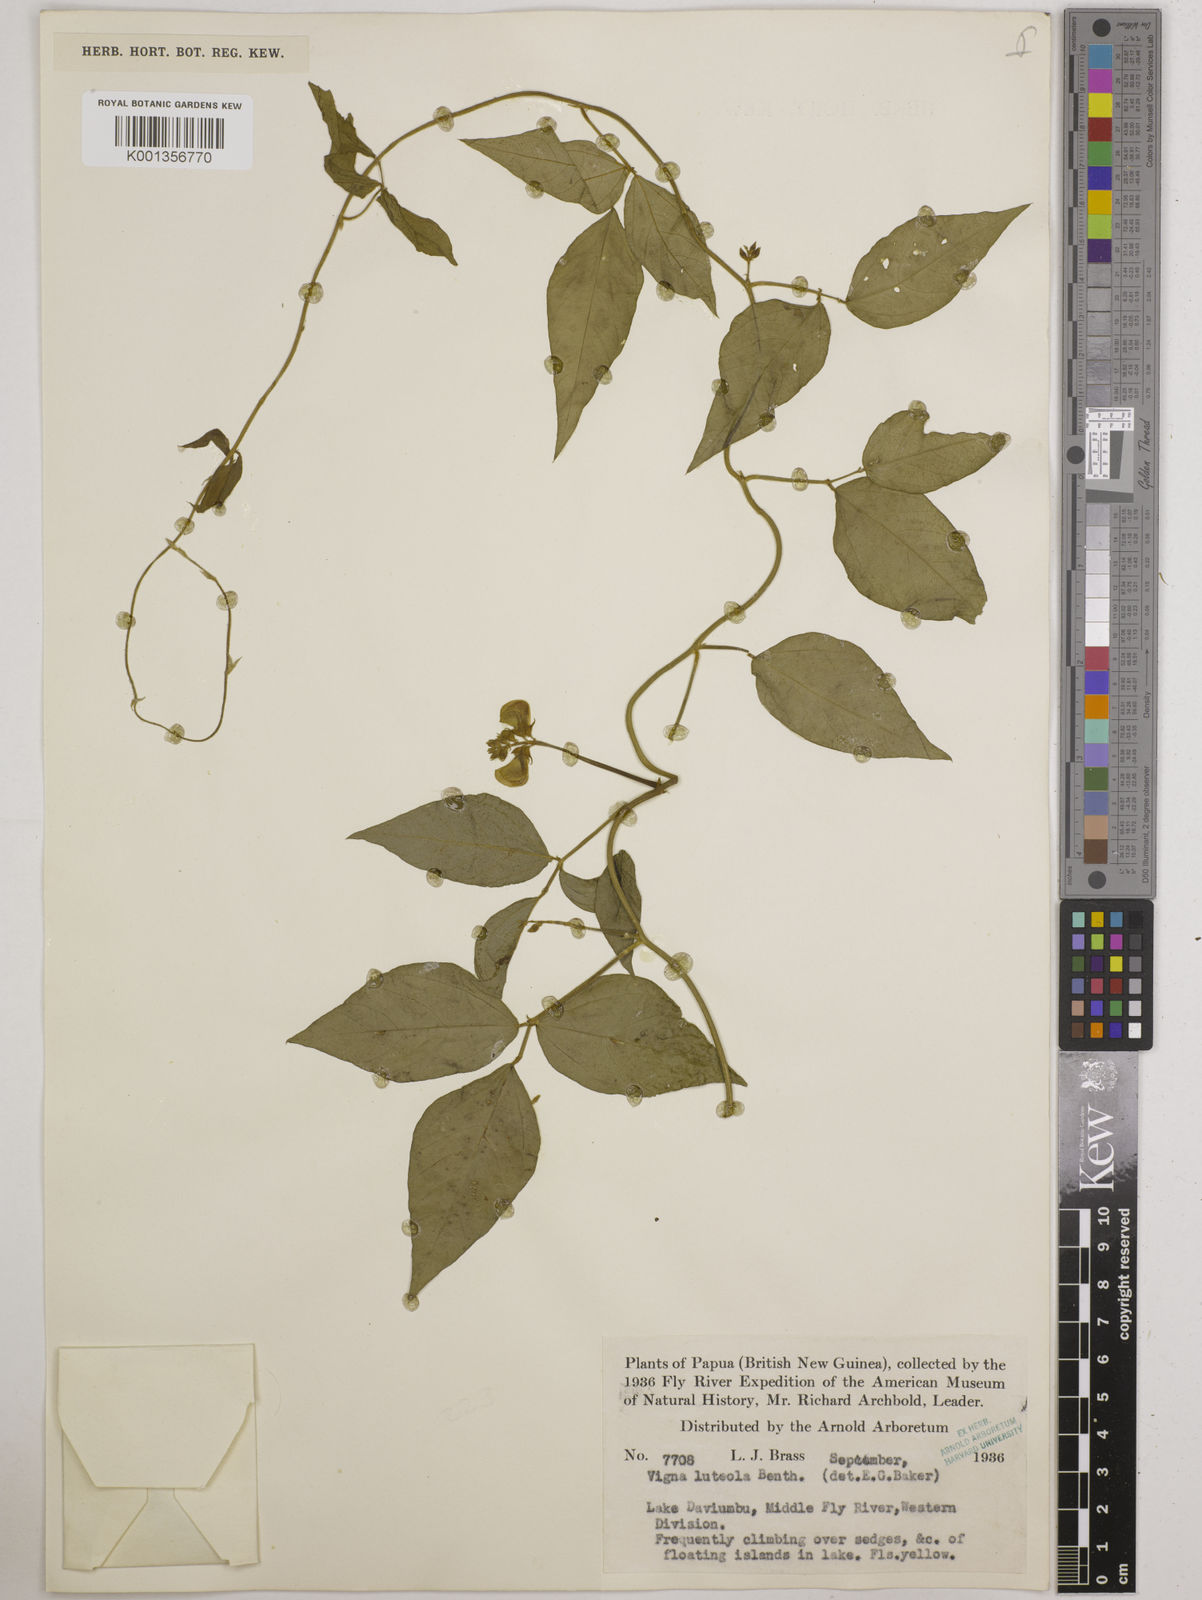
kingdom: Plantae
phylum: Tracheophyta
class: Magnoliopsida
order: Fabales
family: Fabaceae
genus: Vigna
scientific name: Vigna luteola
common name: Hairypod cowpea
